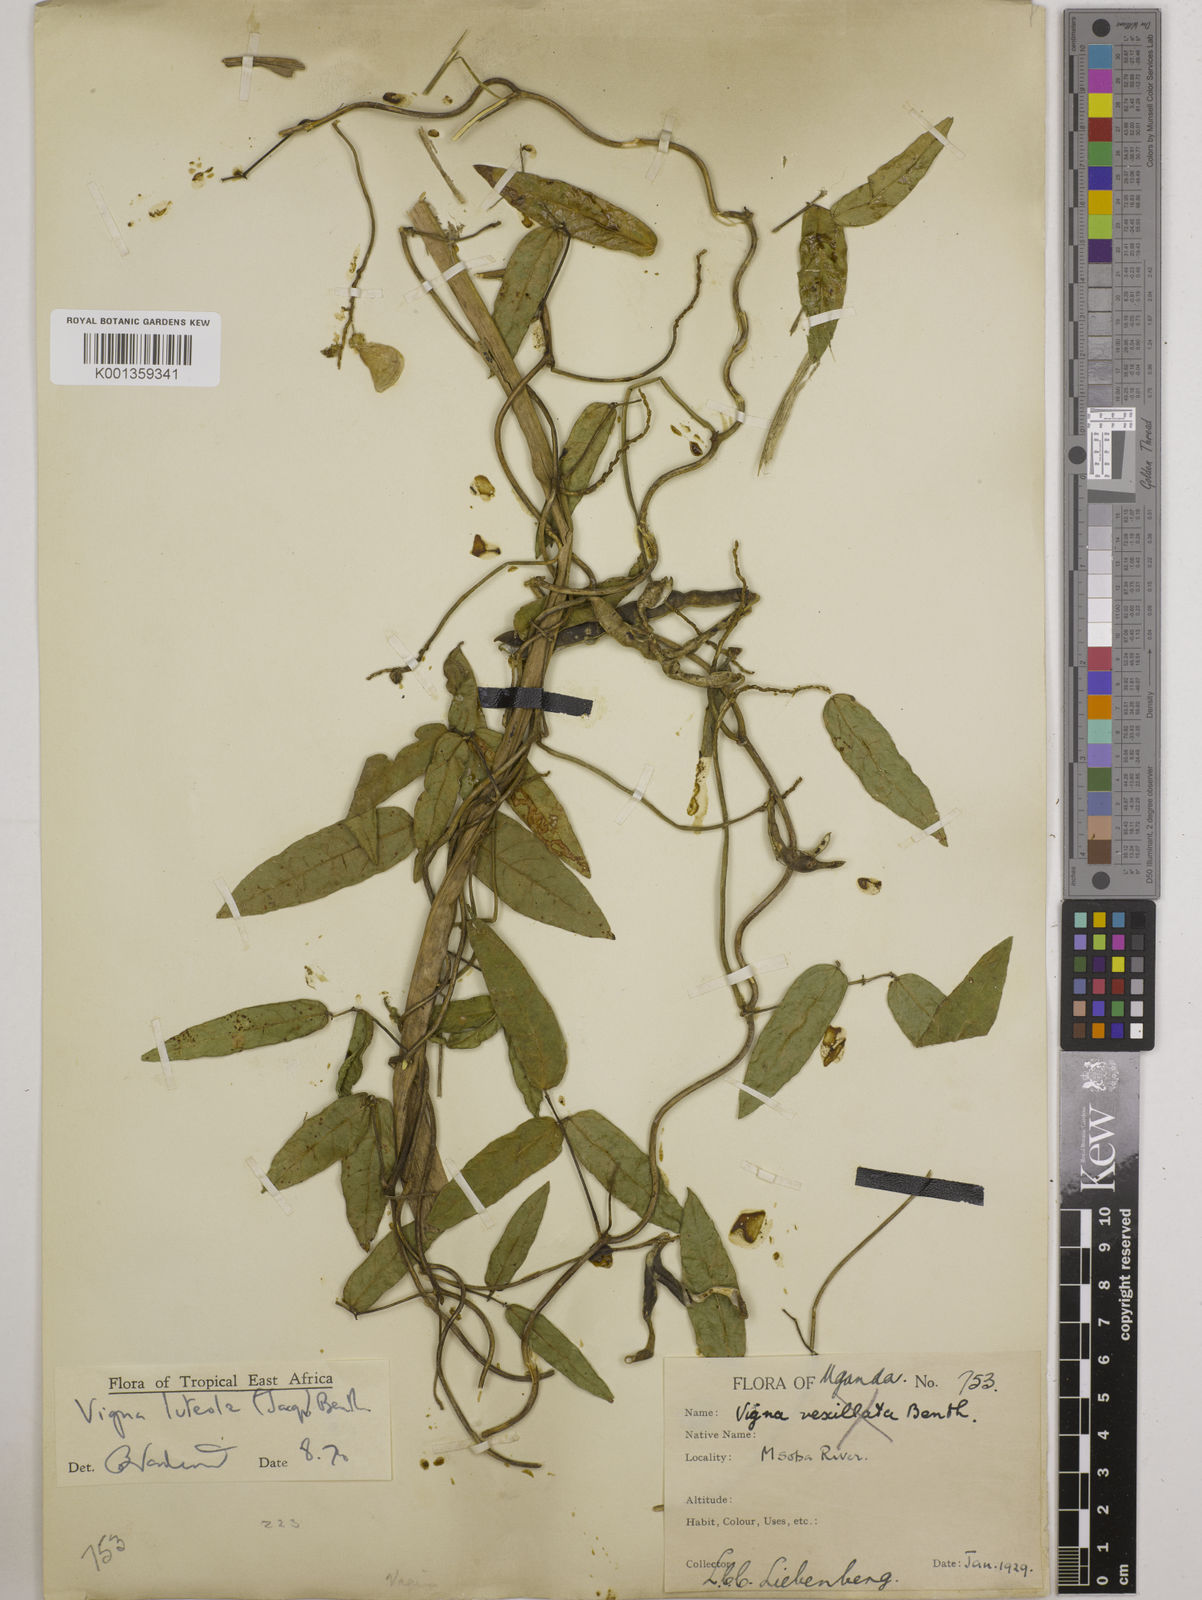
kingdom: Plantae
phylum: Tracheophyta
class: Magnoliopsida
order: Fabales
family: Fabaceae
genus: Vigna
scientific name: Vigna luteola
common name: Hairypod cowpea
